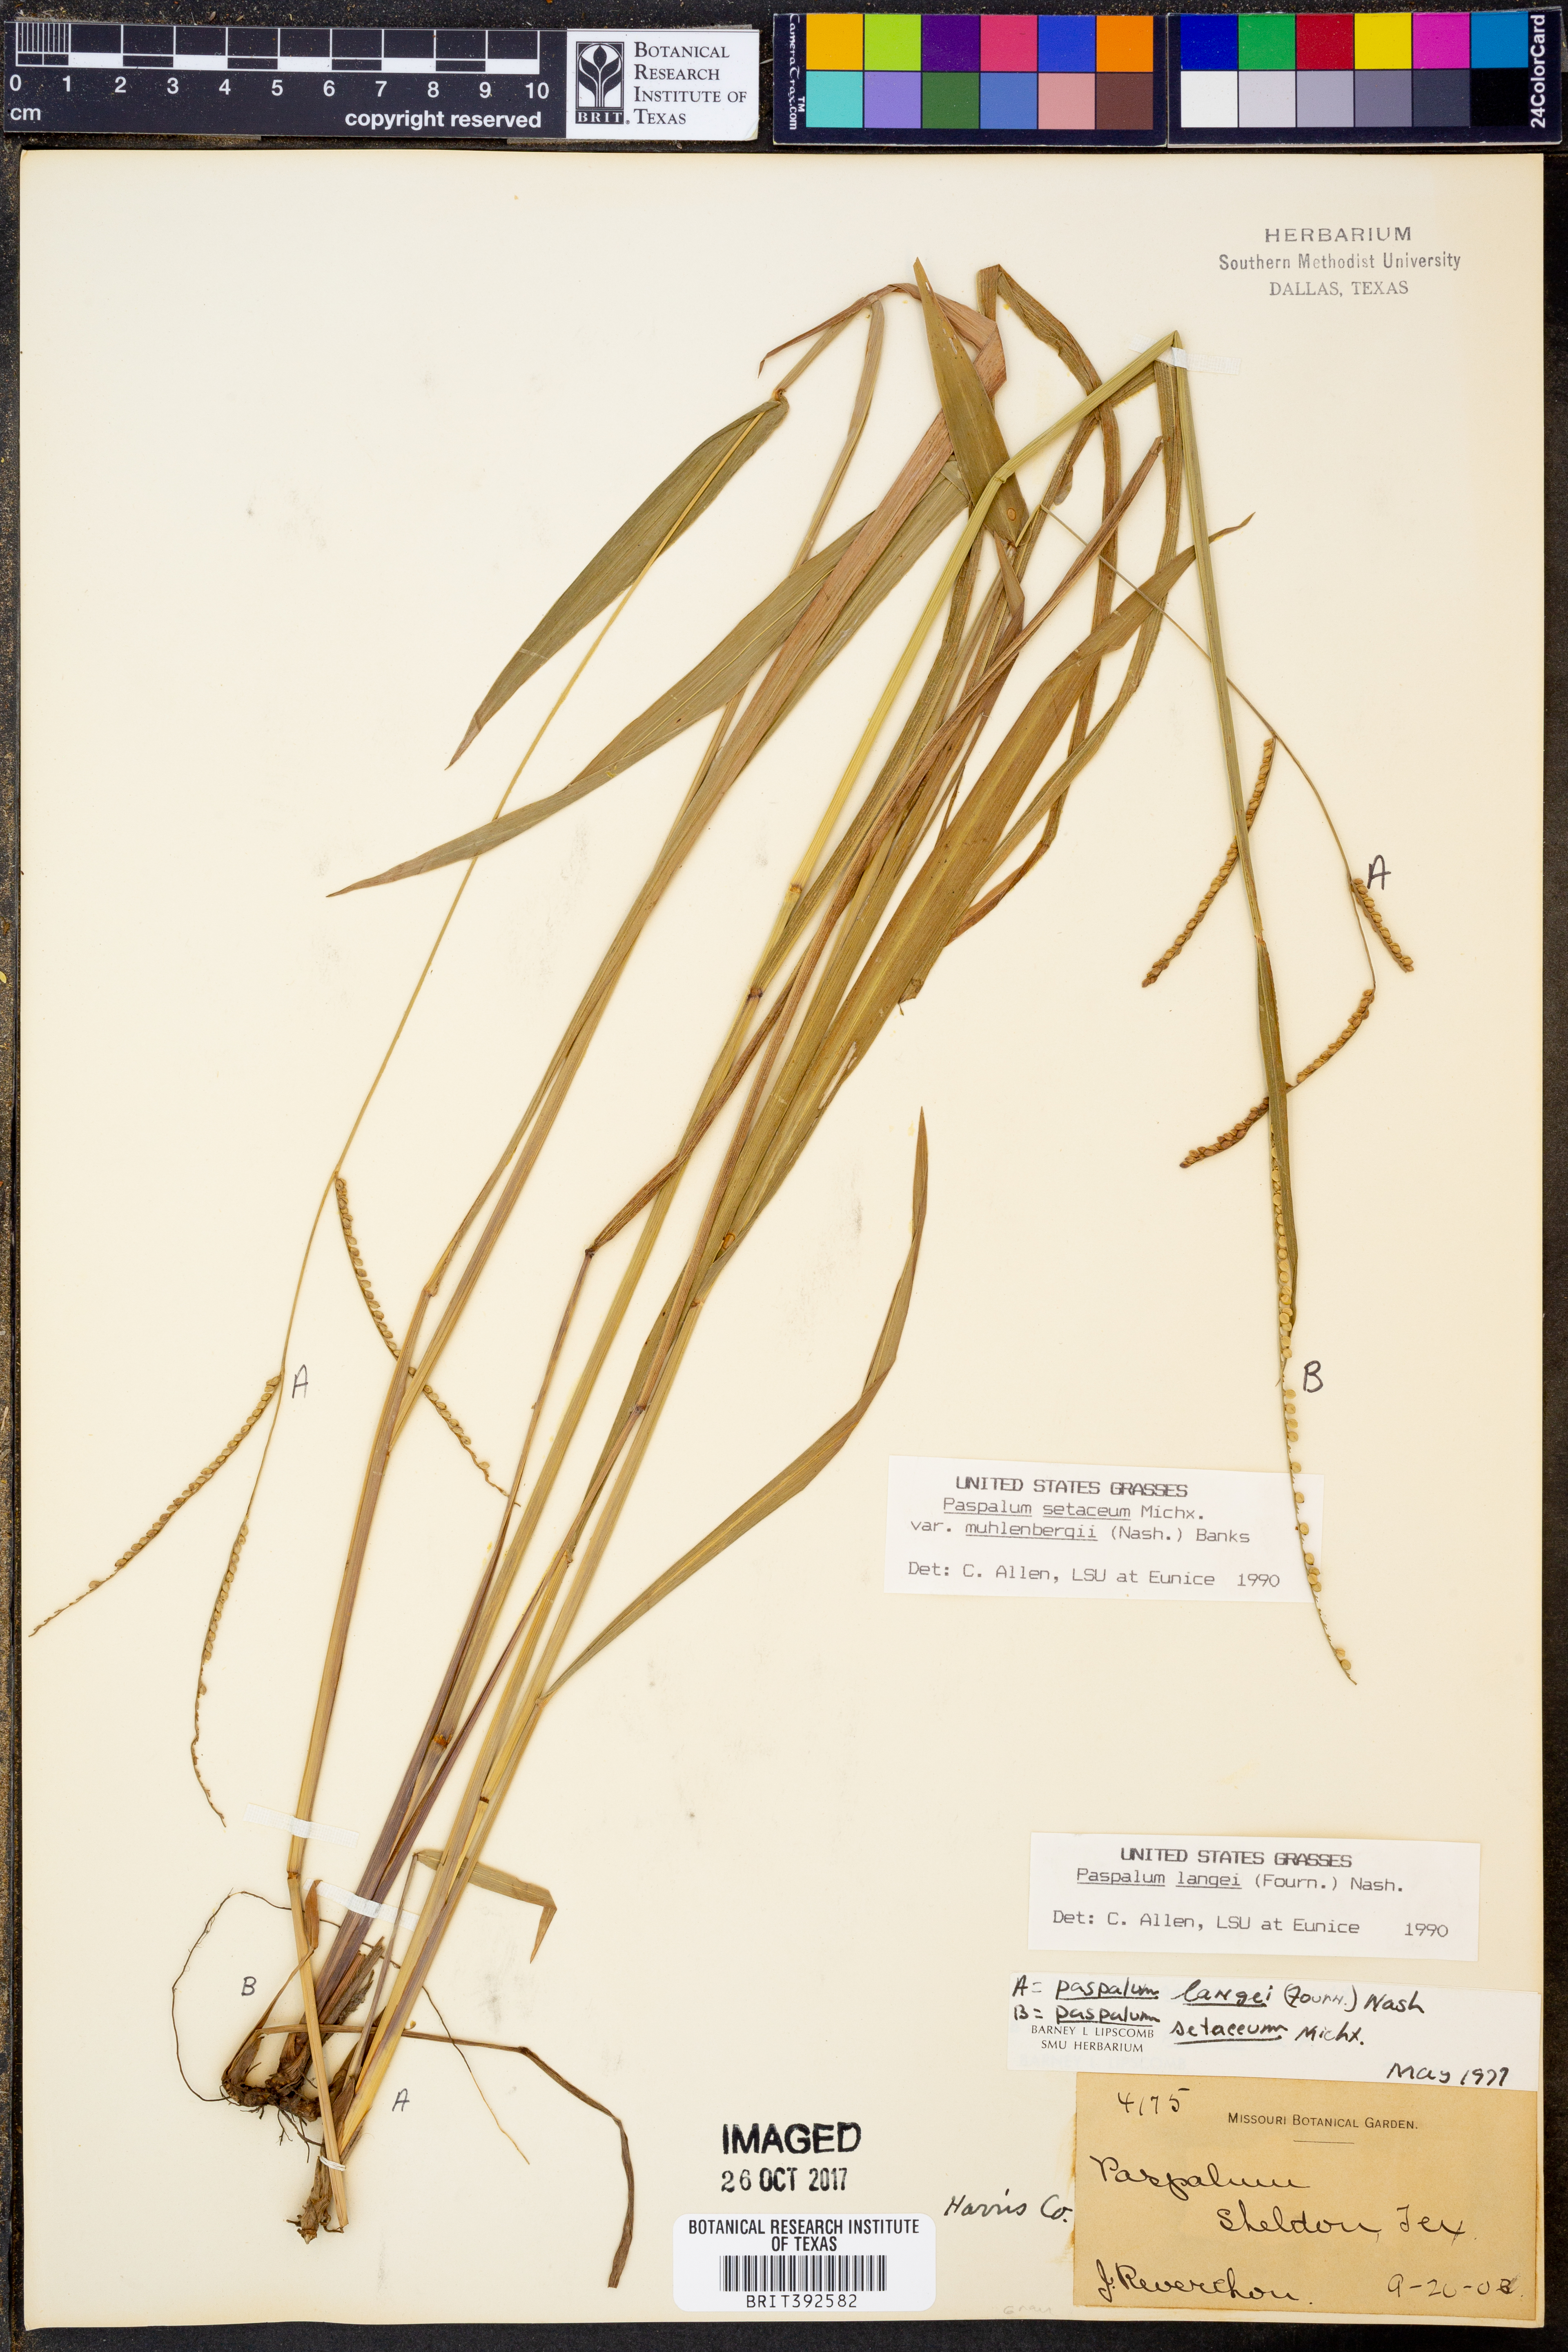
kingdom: Plantae
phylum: Tracheophyta
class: Liliopsida
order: Poales
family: Poaceae
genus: Paspalum
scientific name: Paspalum setaceum
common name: Slender paspalum
